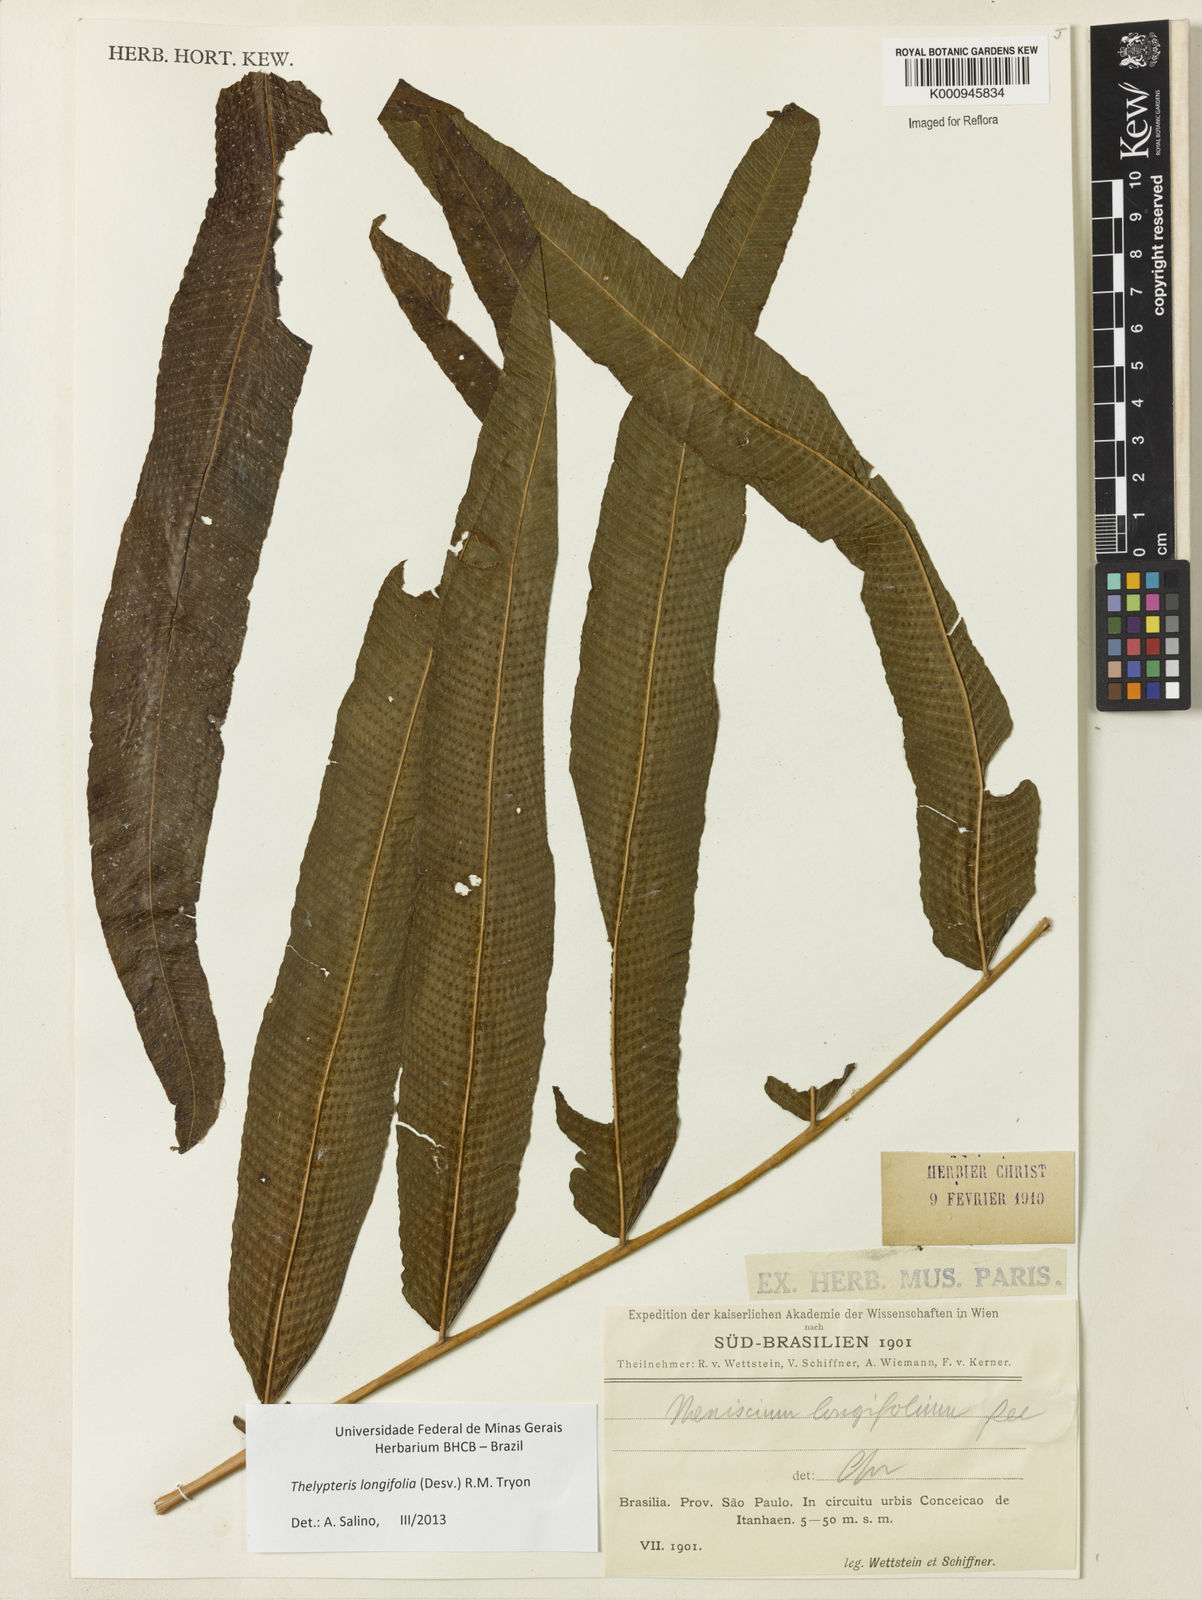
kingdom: Plantae
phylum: Tracheophyta
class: Polypodiopsida
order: Polypodiales
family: Thelypteridaceae
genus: Meniscium
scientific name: Meniscium longifolium
